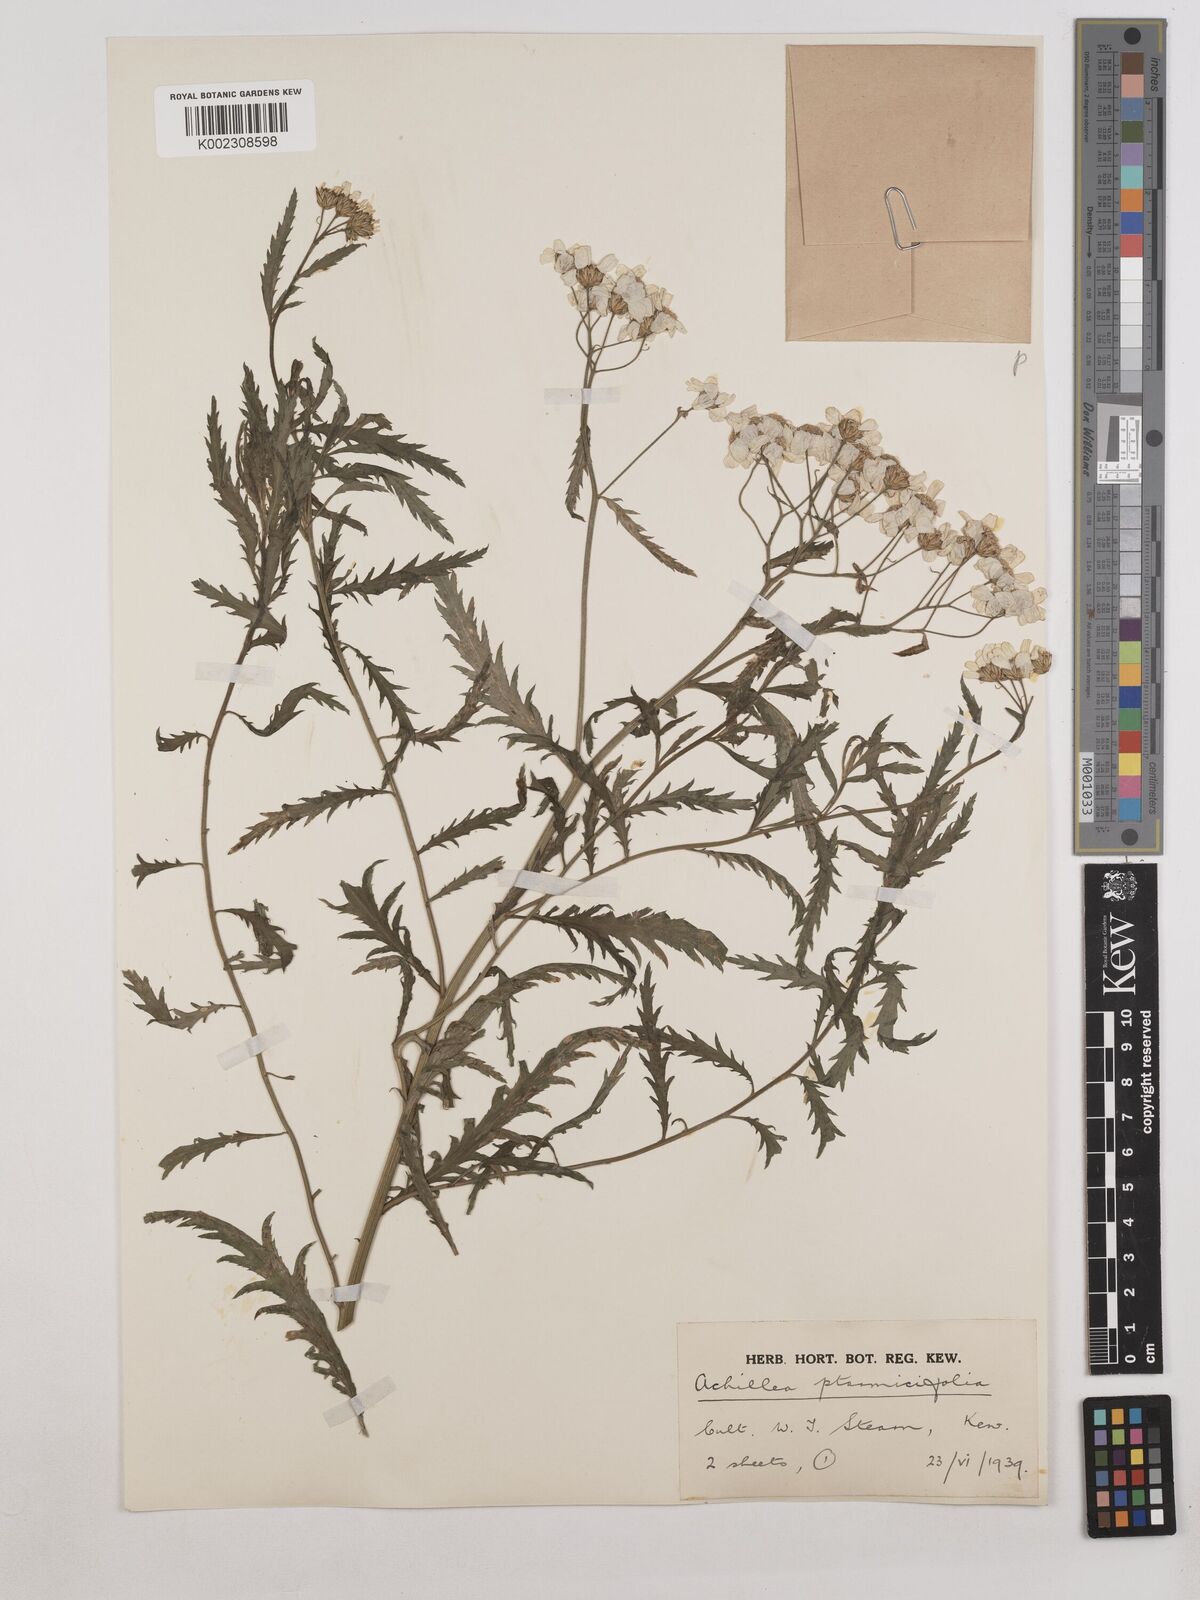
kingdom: Plantae
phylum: Tracheophyta
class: Magnoliopsida
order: Asterales
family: Asteraceae
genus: Achillea
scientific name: Achillea ptarmica
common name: Sneezeweed
